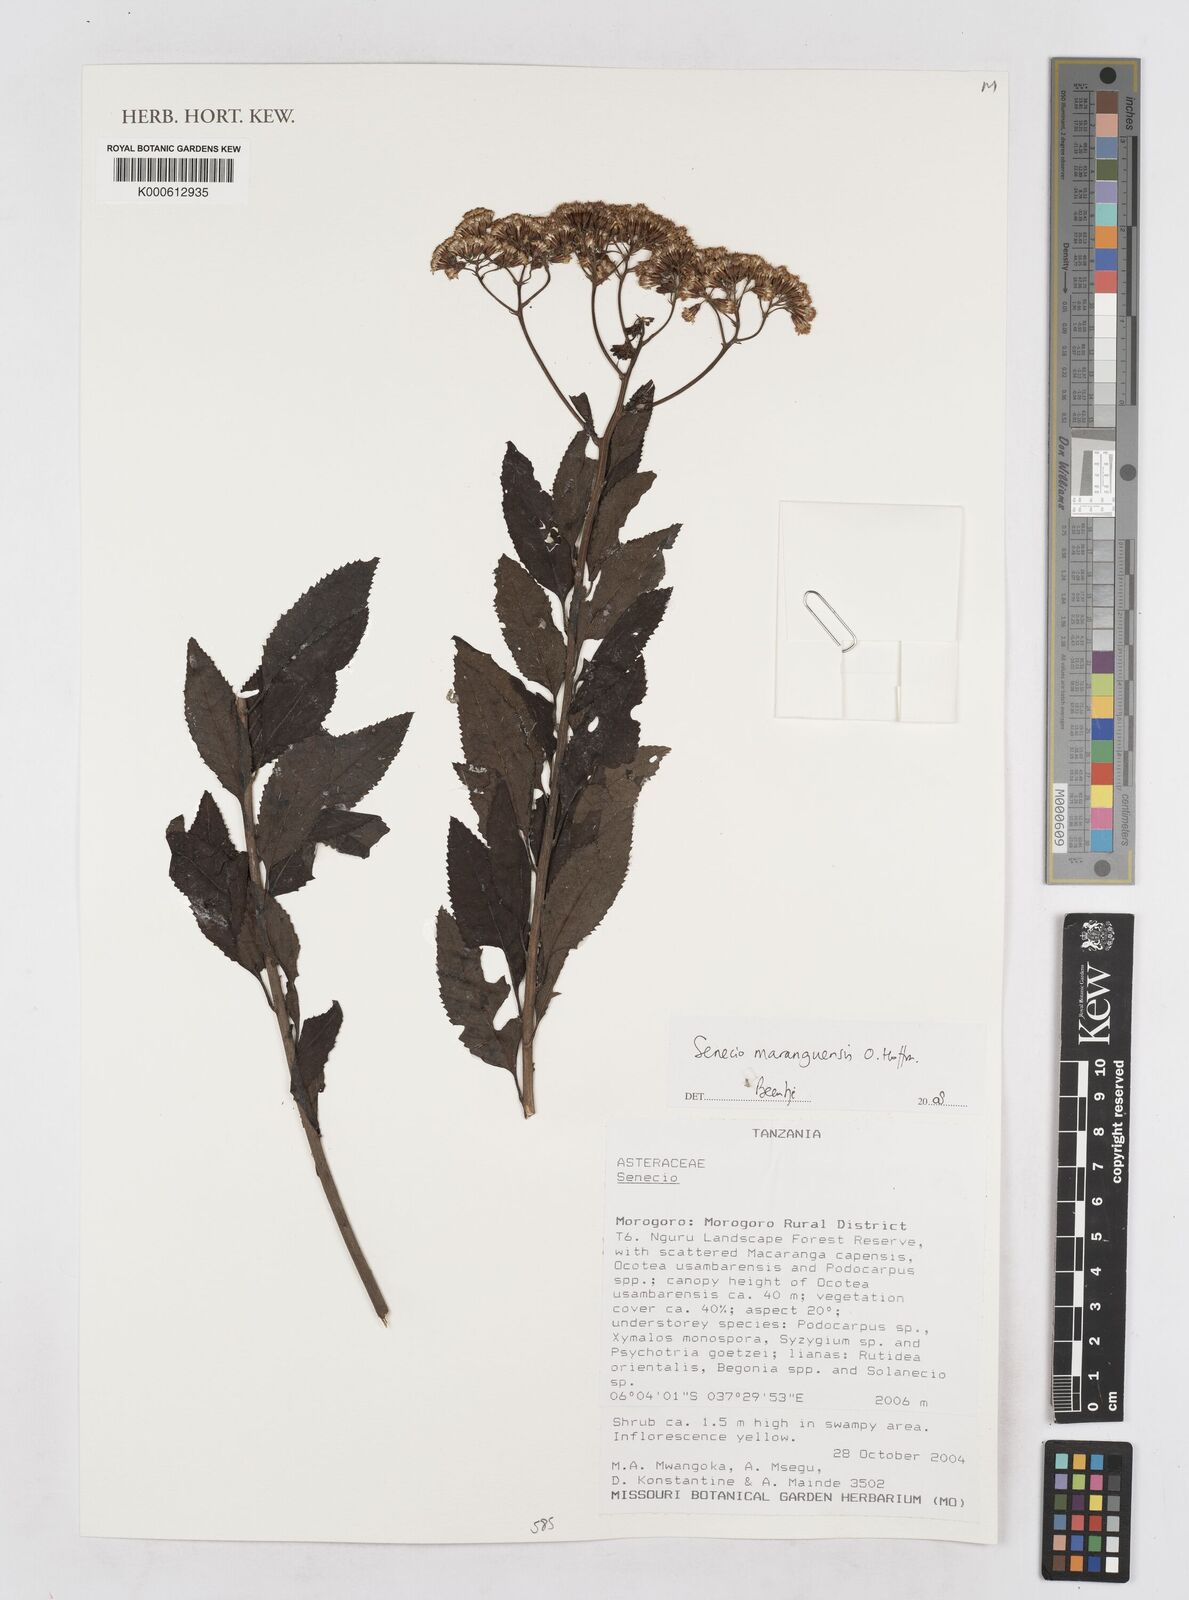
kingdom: Plantae
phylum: Tracheophyta
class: Magnoliopsida
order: Asterales
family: Asteraceae
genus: Senecio
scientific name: Senecio maranguensis
